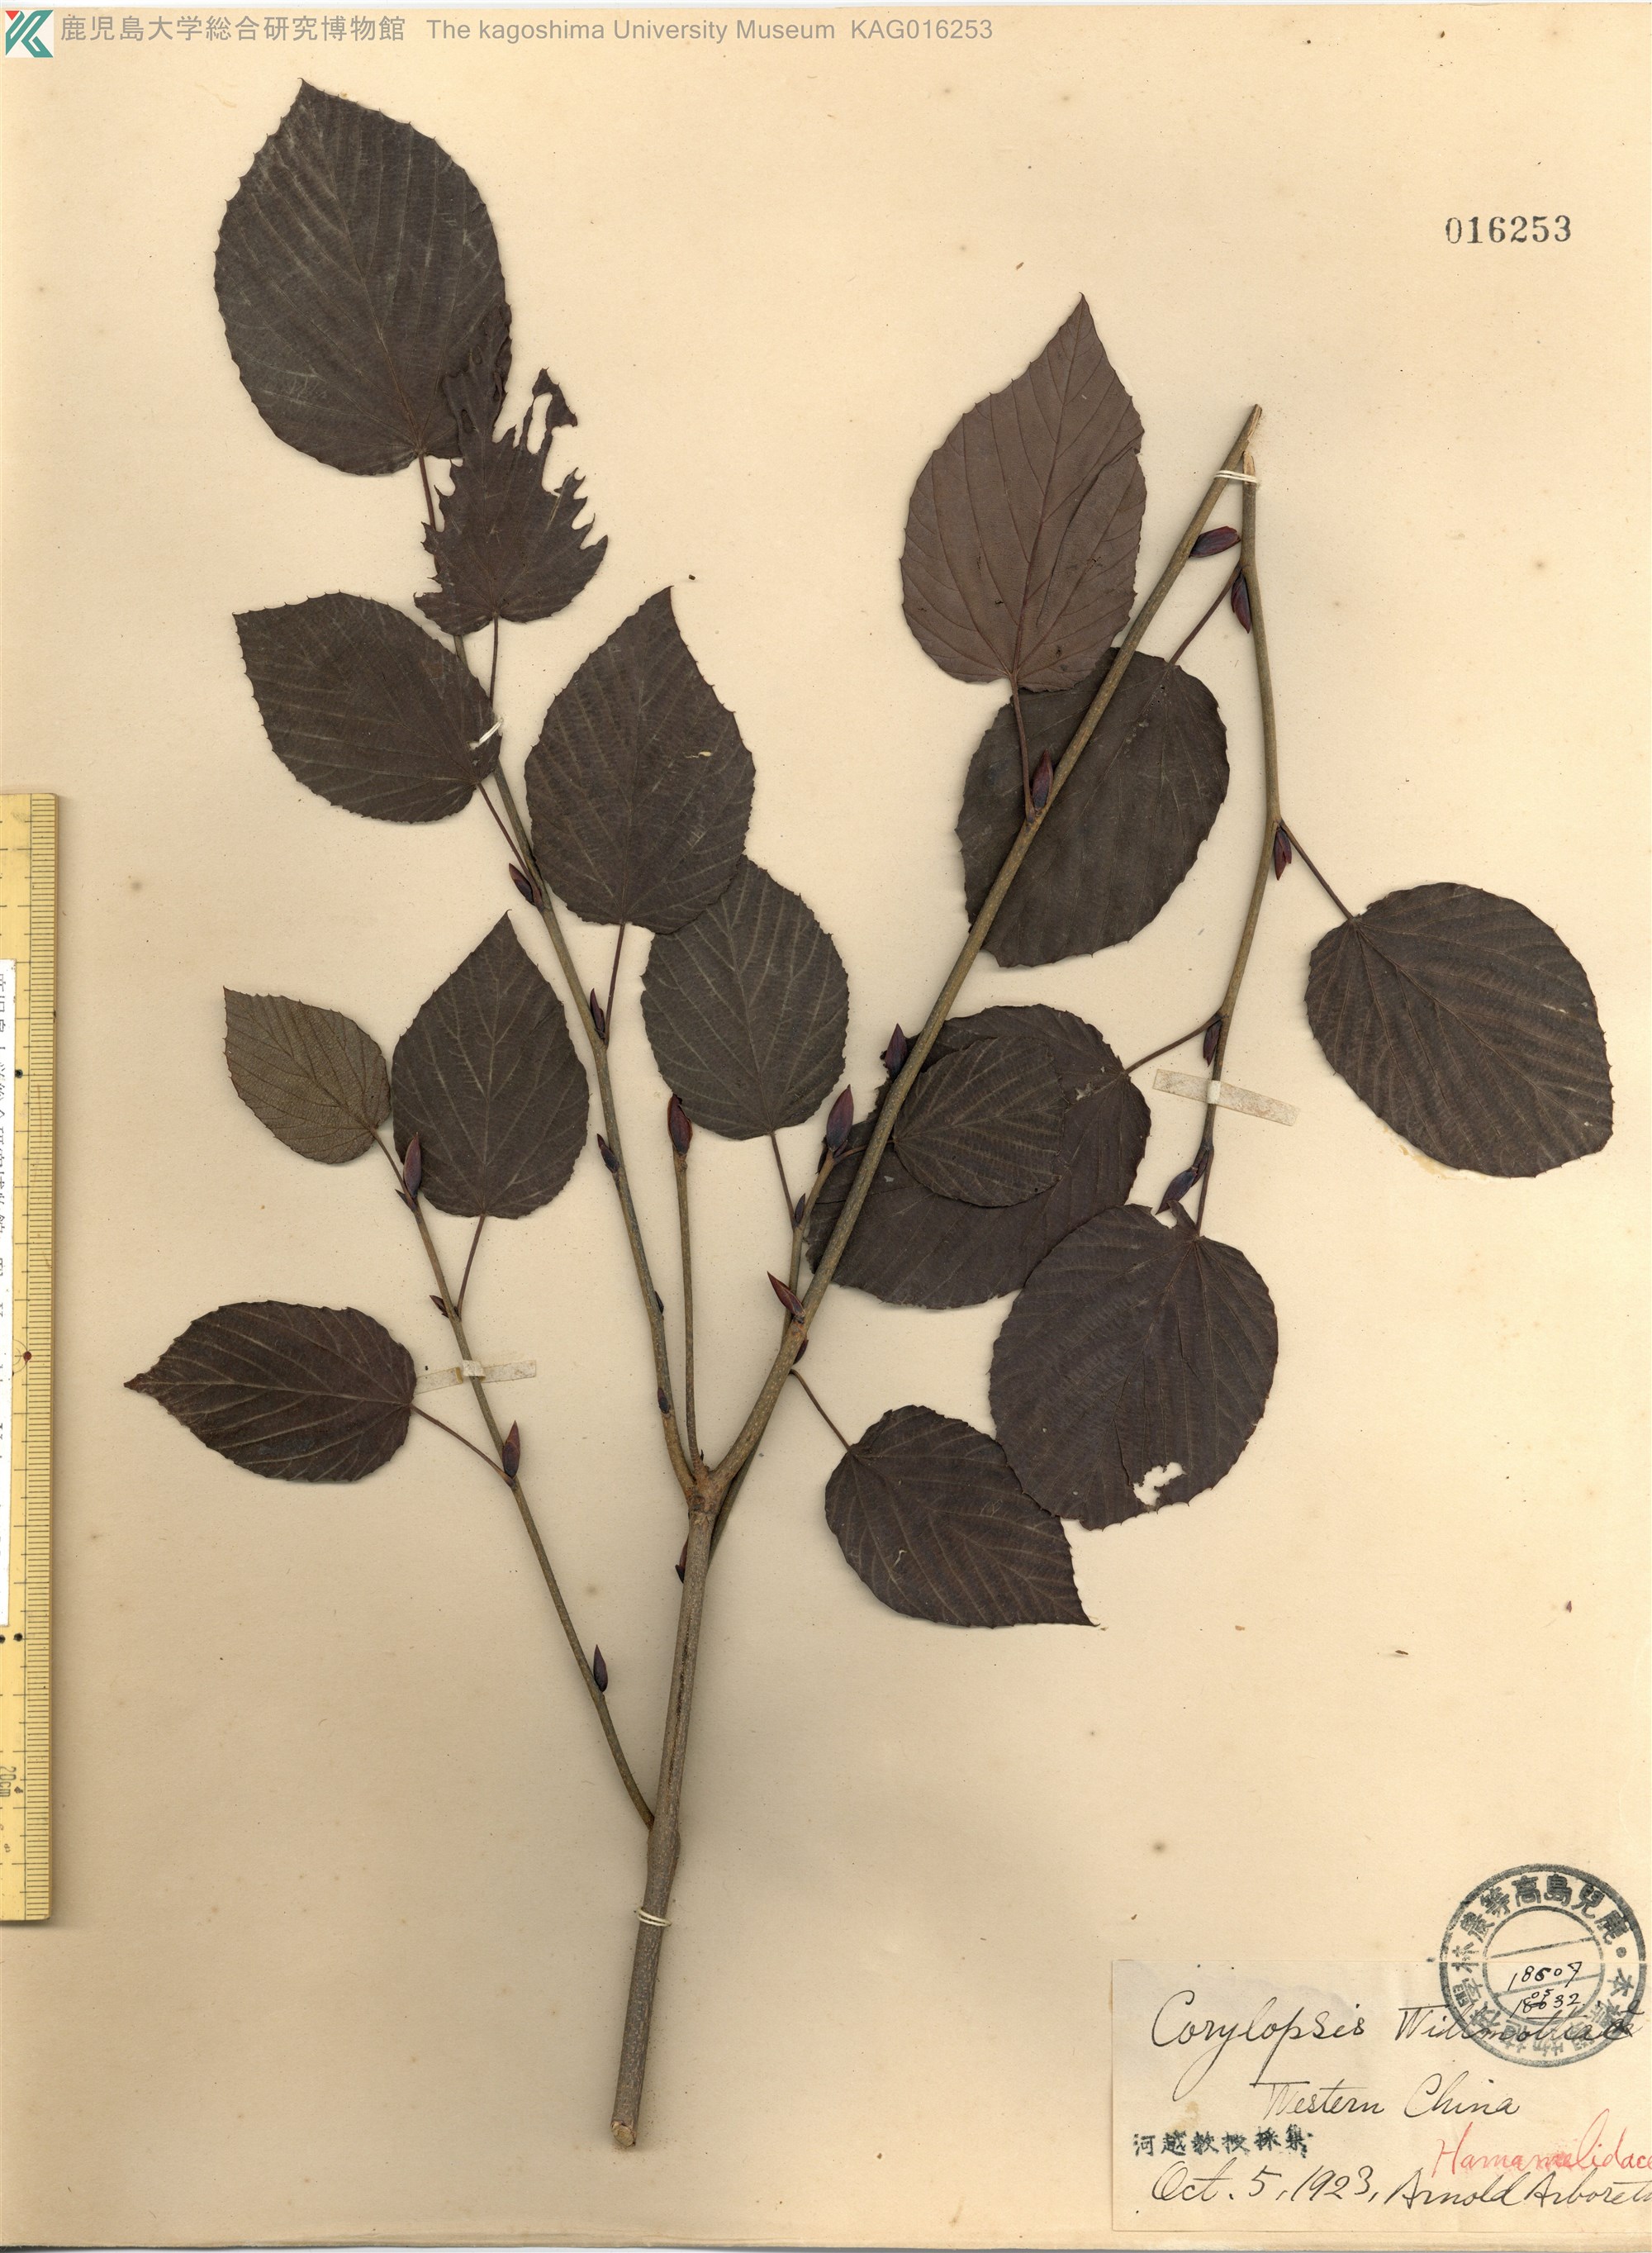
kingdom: Plantae
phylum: Tracheophyta
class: Magnoliopsida
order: Saxifragales
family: Hamamelidaceae
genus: Corylopsis
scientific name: Corylopsis
